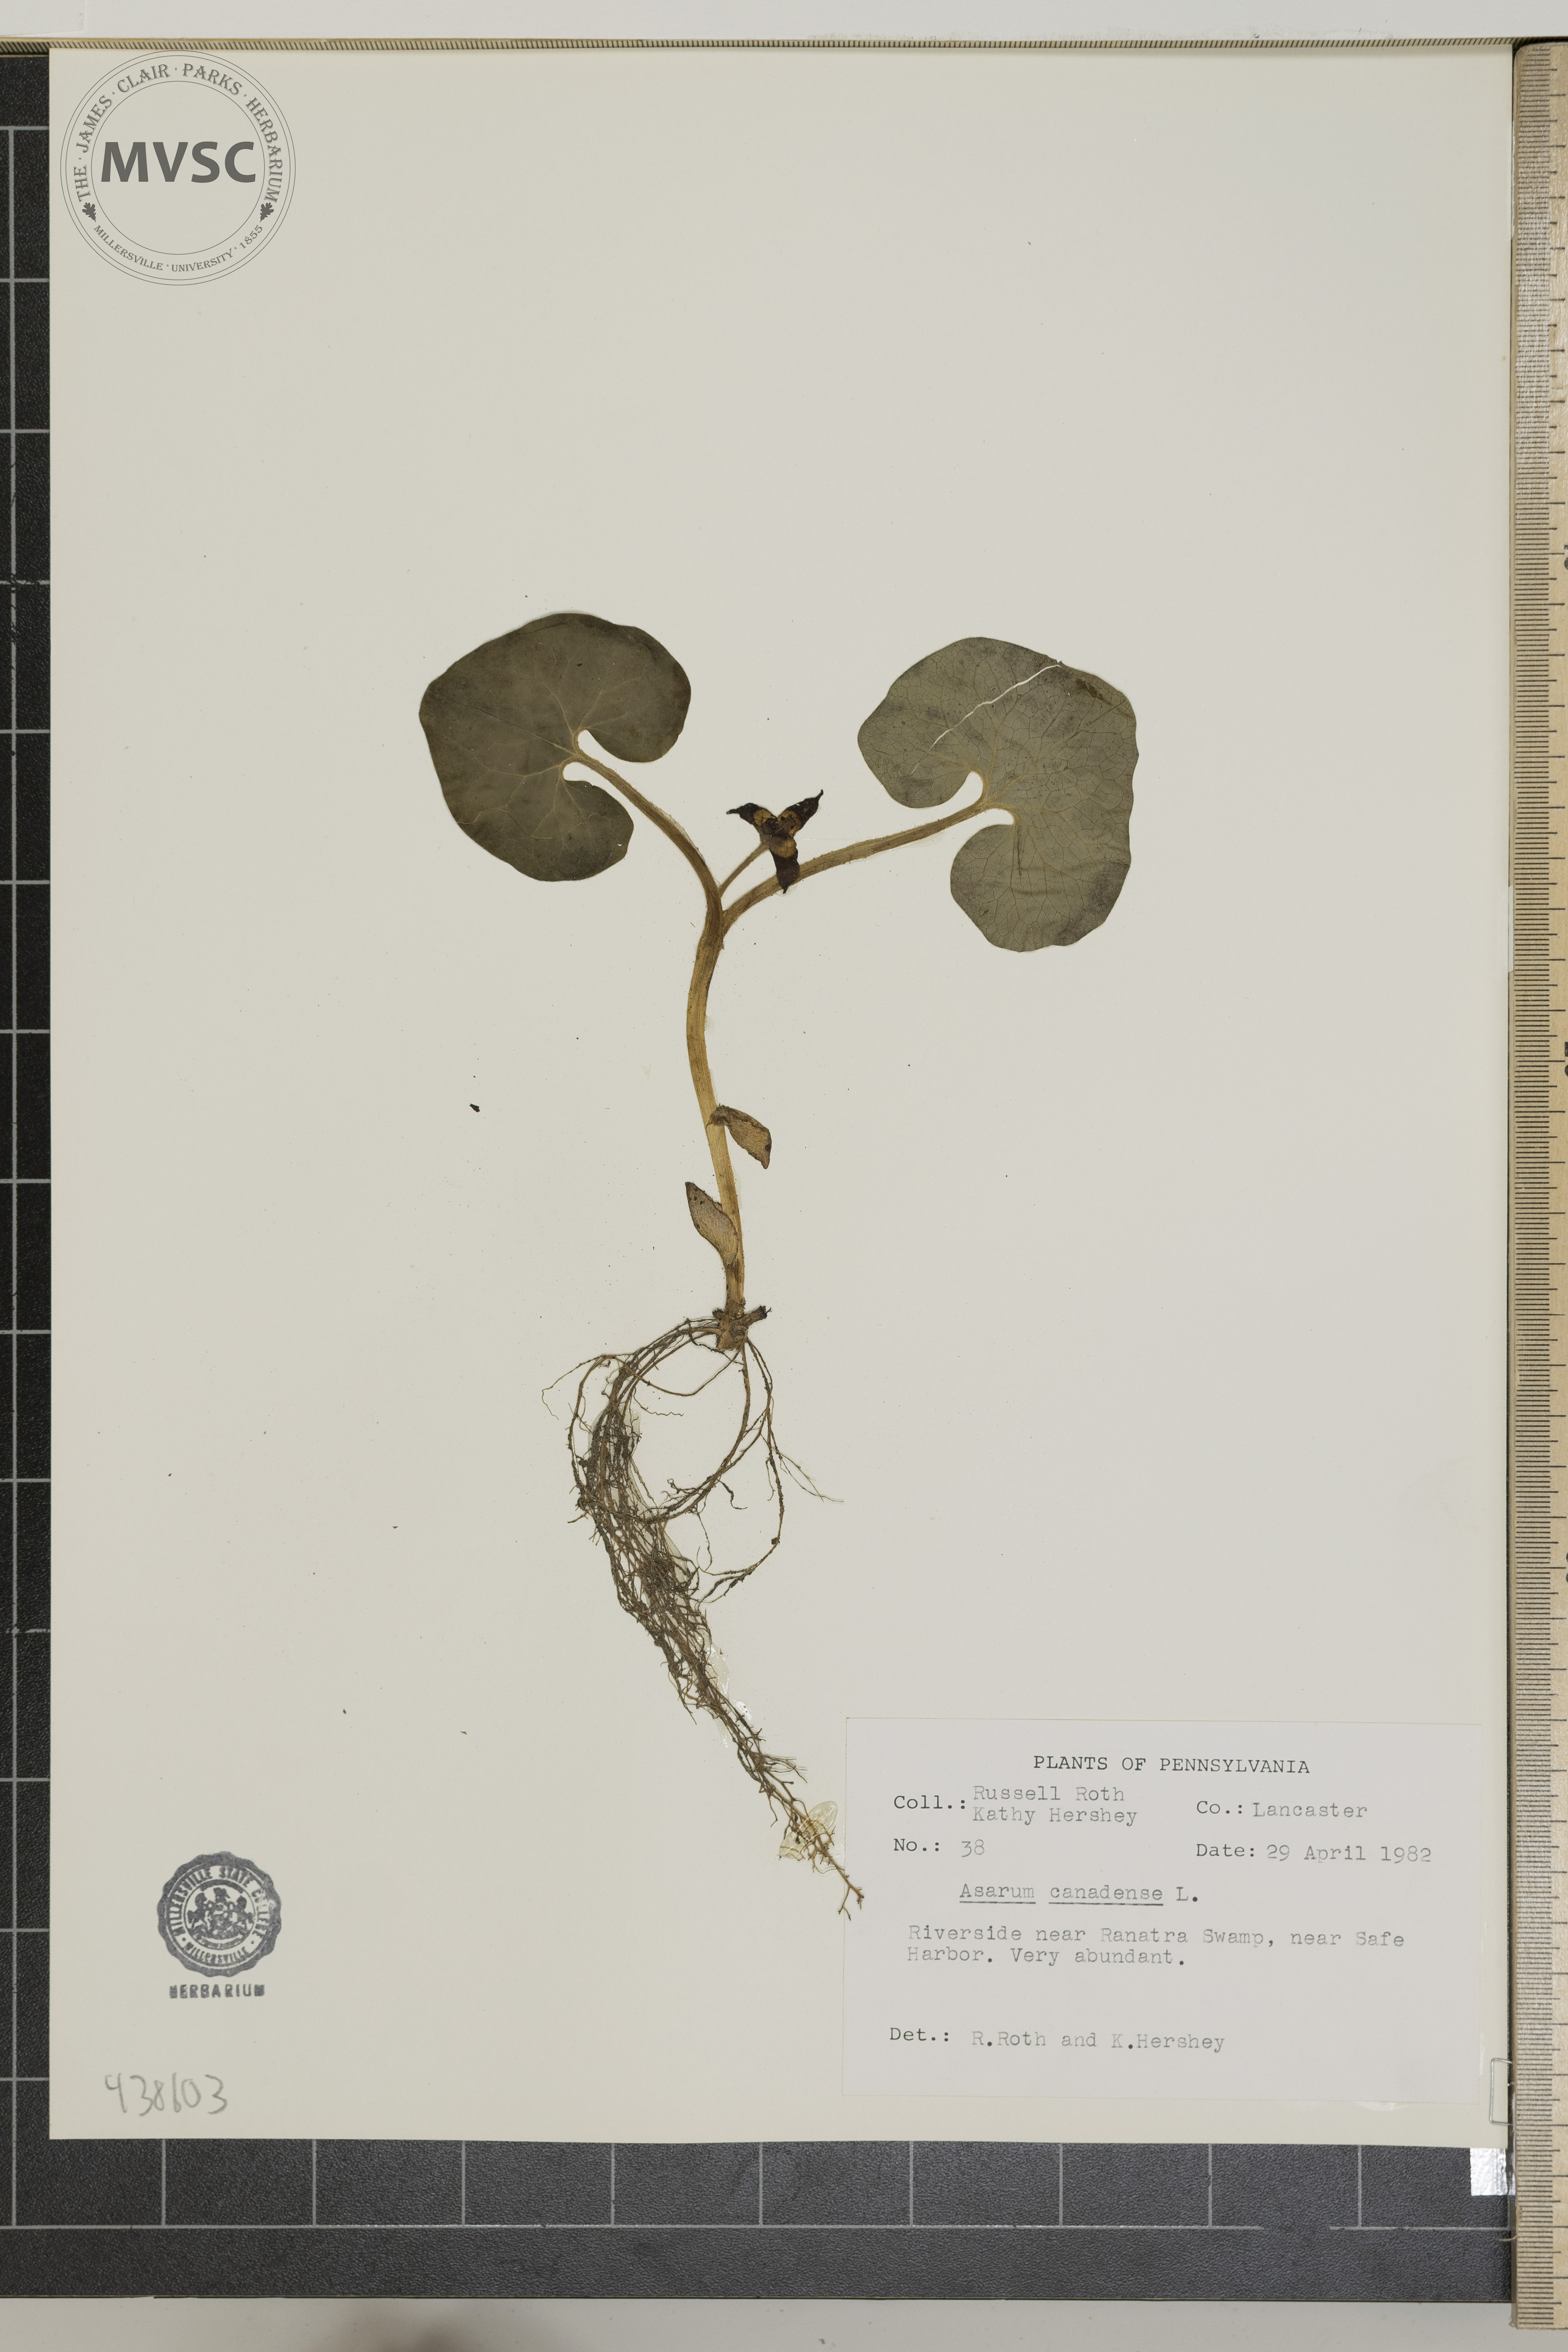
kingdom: Plantae
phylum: Tracheophyta
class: Magnoliopsida
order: Piperales
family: Aristolochiaceae
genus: Asarum
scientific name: Asarum canadense
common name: Wild ginger
